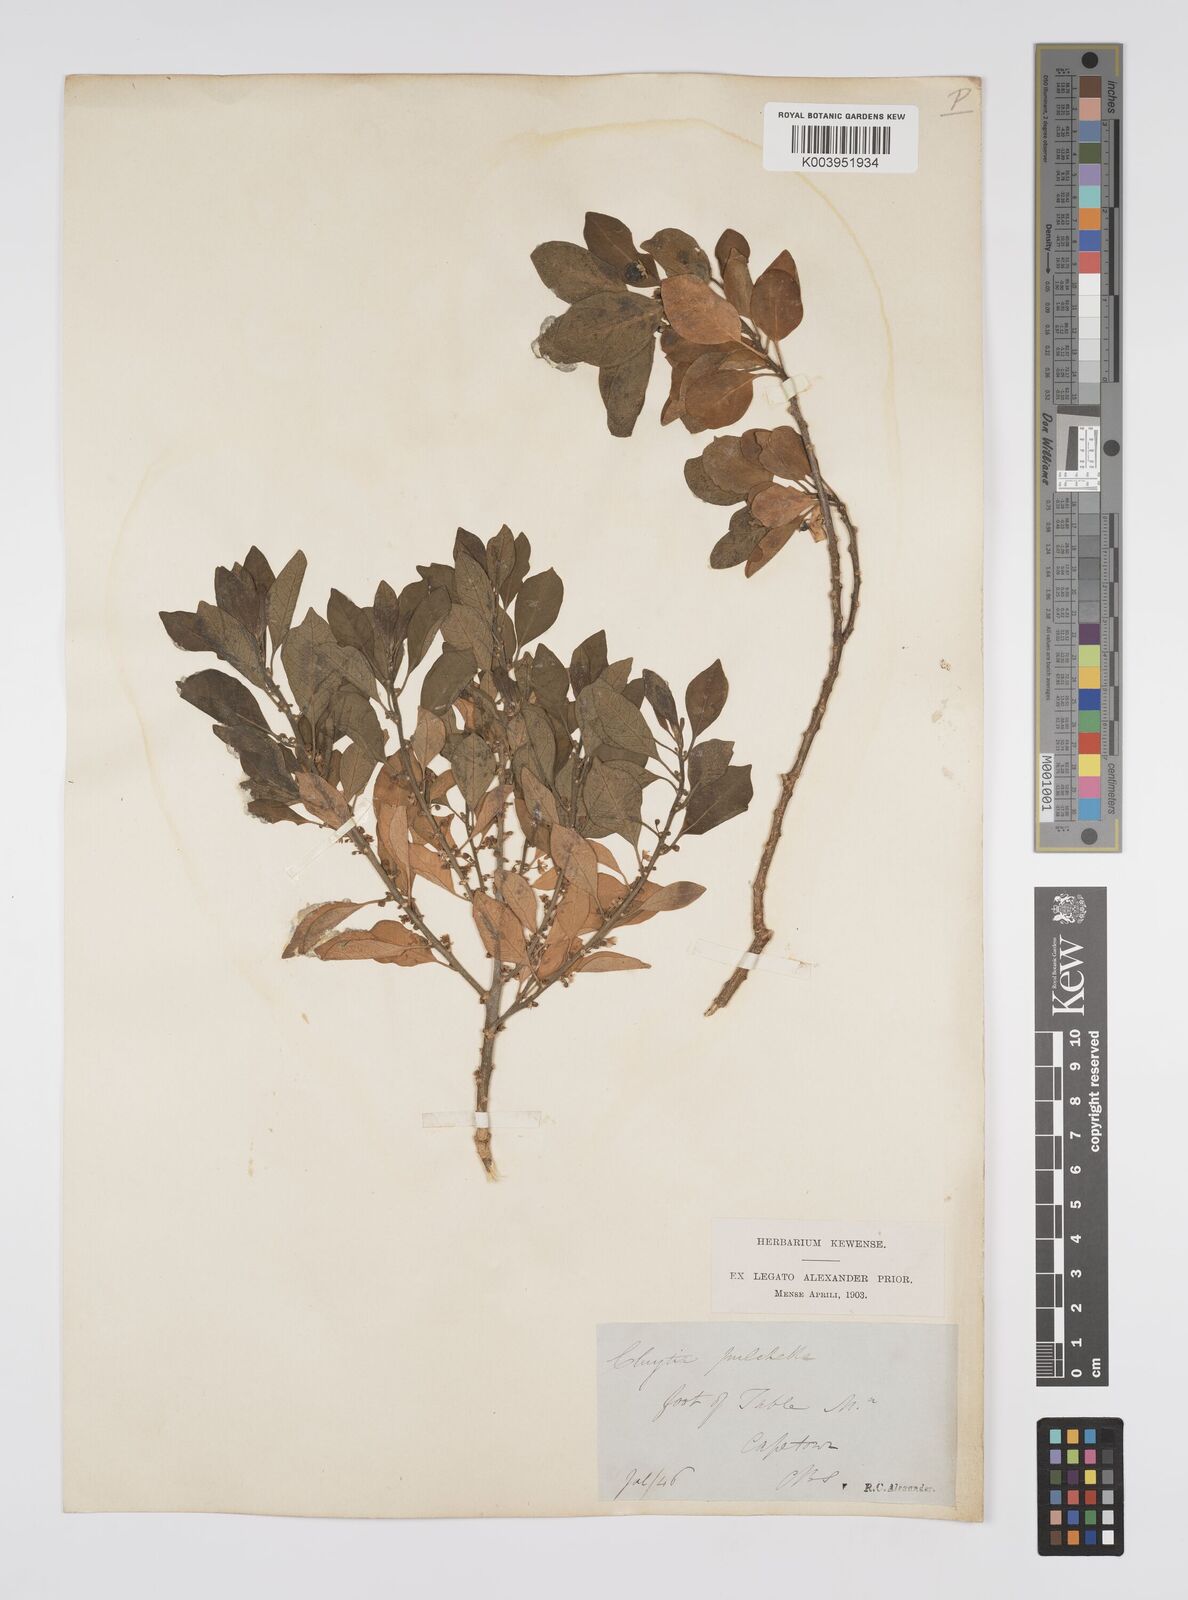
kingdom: Plantae
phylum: Tracheophyta
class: Magnoliopsida
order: Malpighiales
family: Peraceae
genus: Clutia
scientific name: Clutia pulchella
